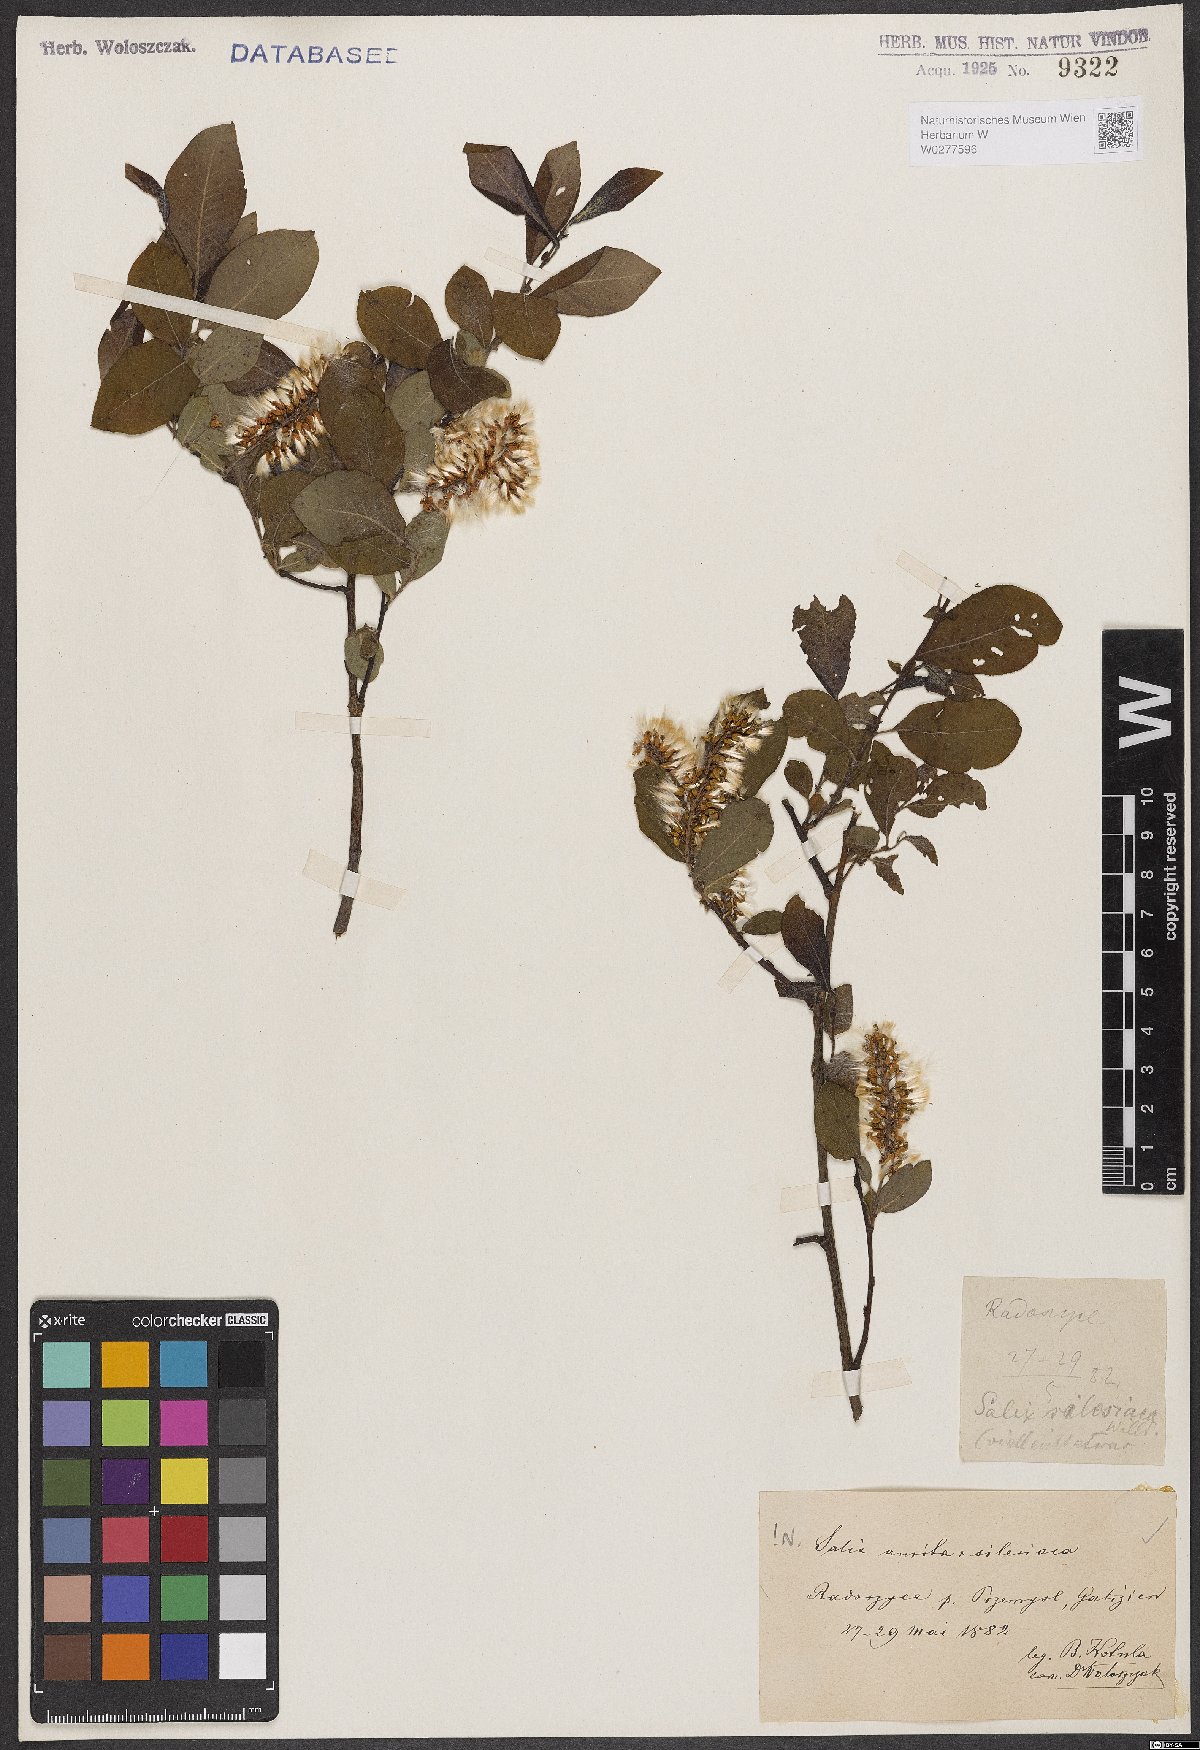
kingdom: Plantae
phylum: Tracheophyta
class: Magnoliopsida
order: Malpighiales
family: Salicaceae
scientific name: Salicaceae
